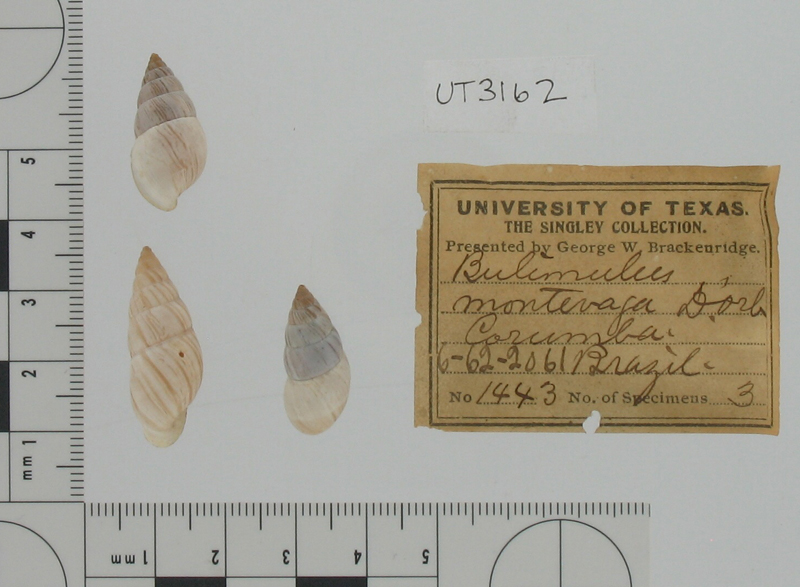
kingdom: Animalia
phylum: Mollusca
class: Gastropoda
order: Stylommatophora
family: Bulimulidae
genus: Bulimulus
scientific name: Bulimulus montivagus
